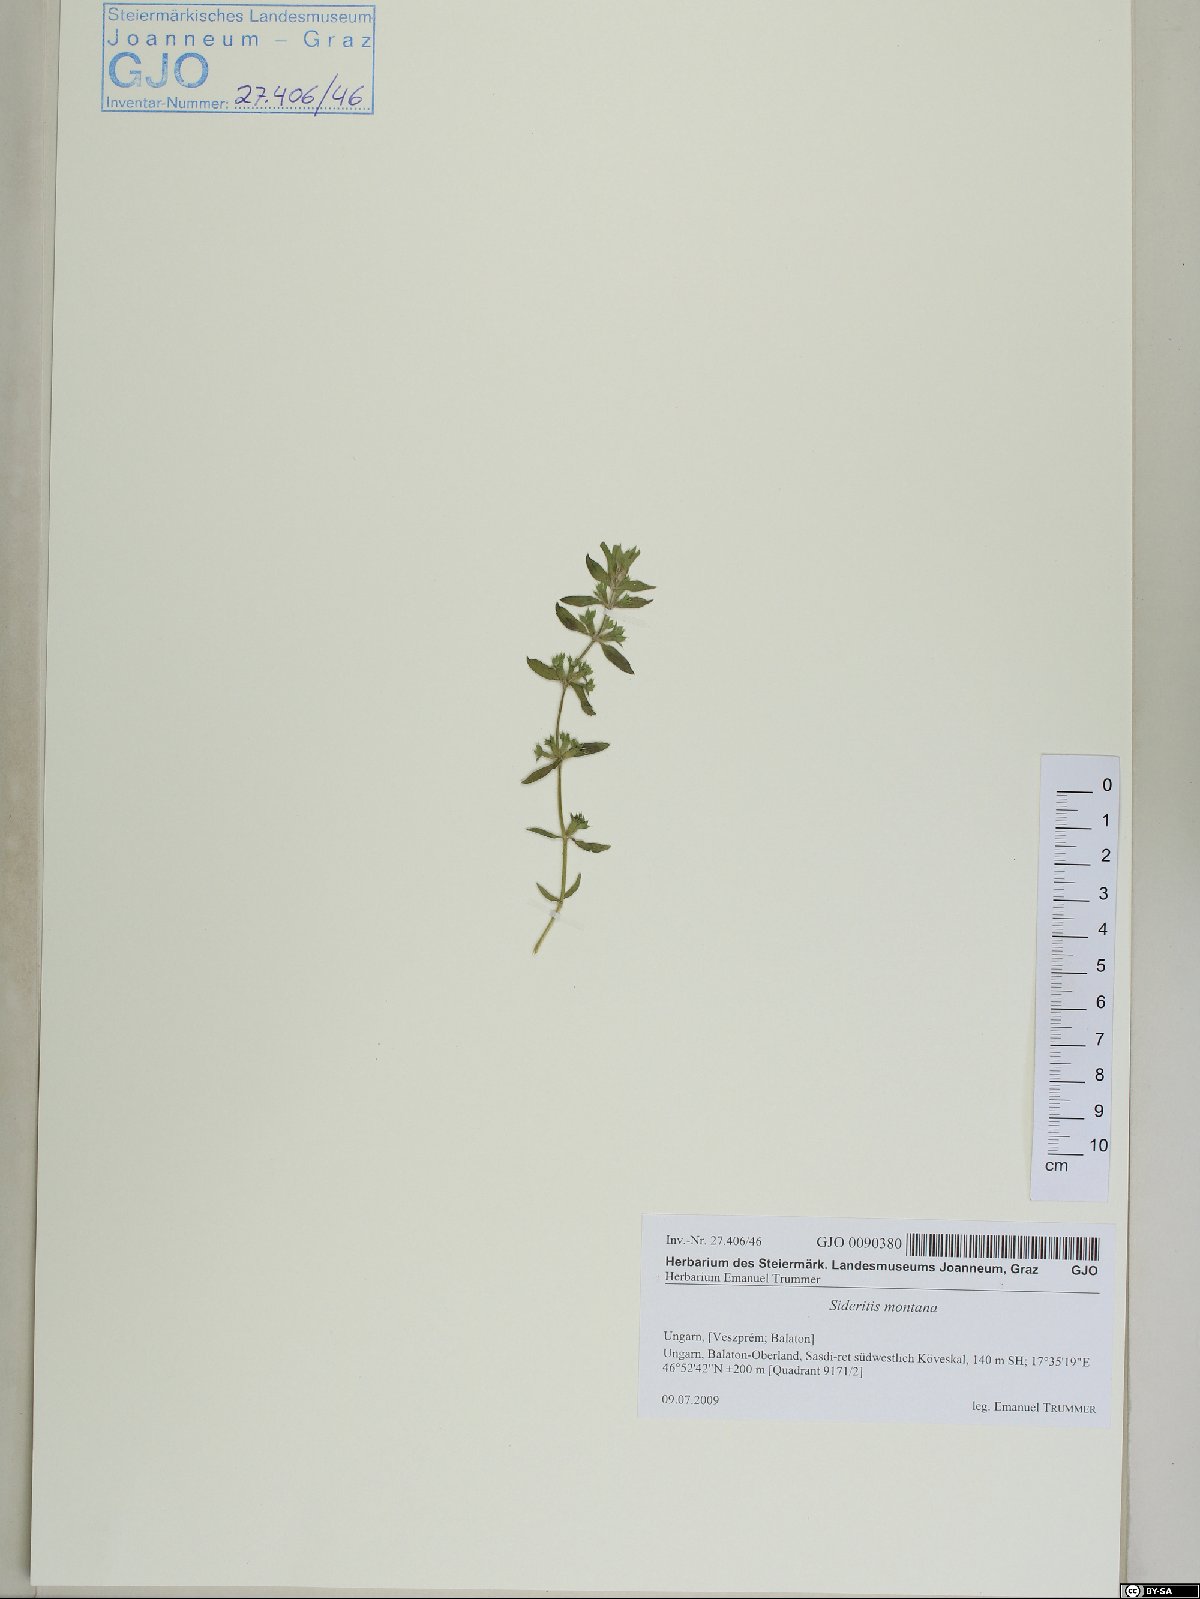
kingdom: Plantae
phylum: Tracheophyta
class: Magnoliopsida
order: Lamiales
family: Lamiaceae
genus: Sideritis
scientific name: Sideritis montana
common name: Mountain ironwort
